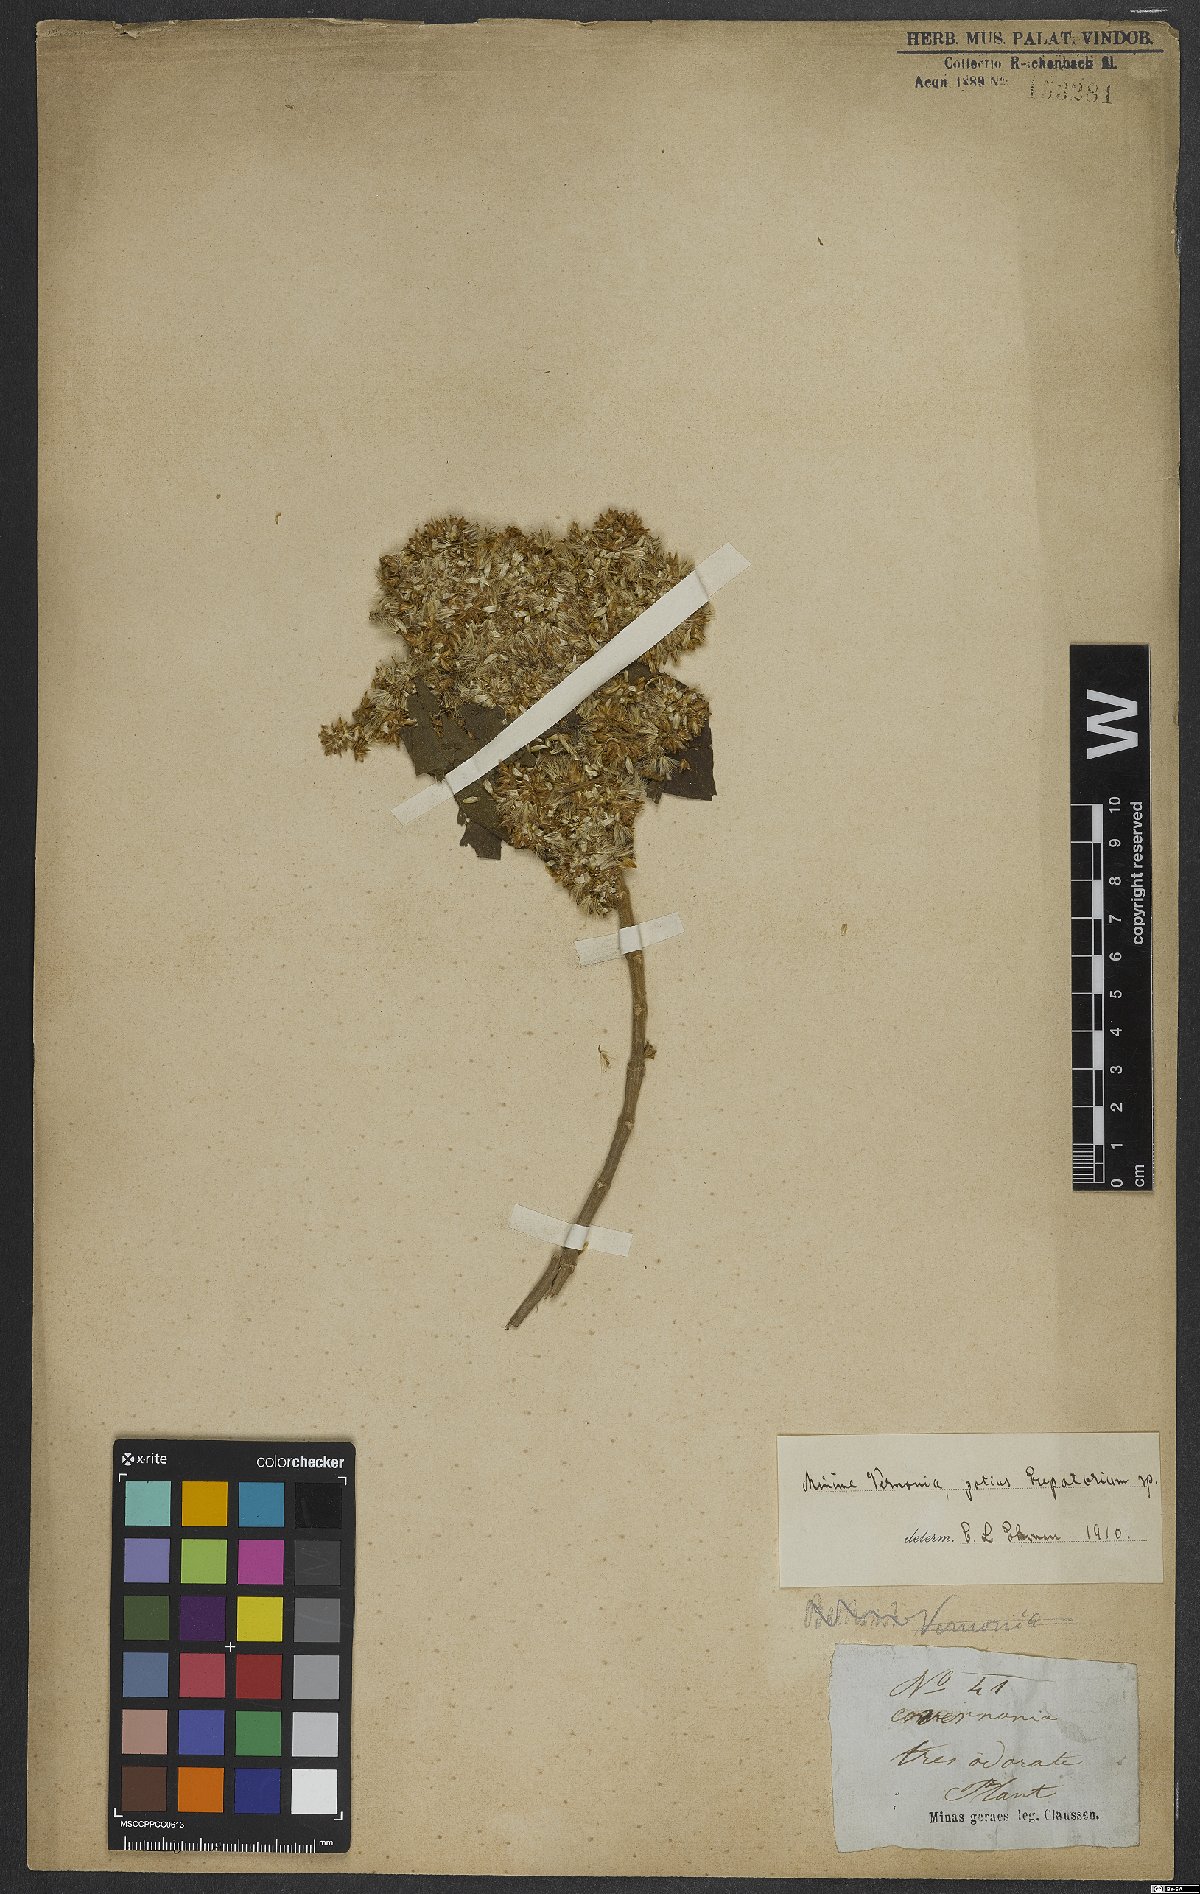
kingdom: Plantae
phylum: Tracheophyta
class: Magnoliopsida
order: Asterales
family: Asteraceae
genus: Eupatorium
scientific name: Eupatorium
